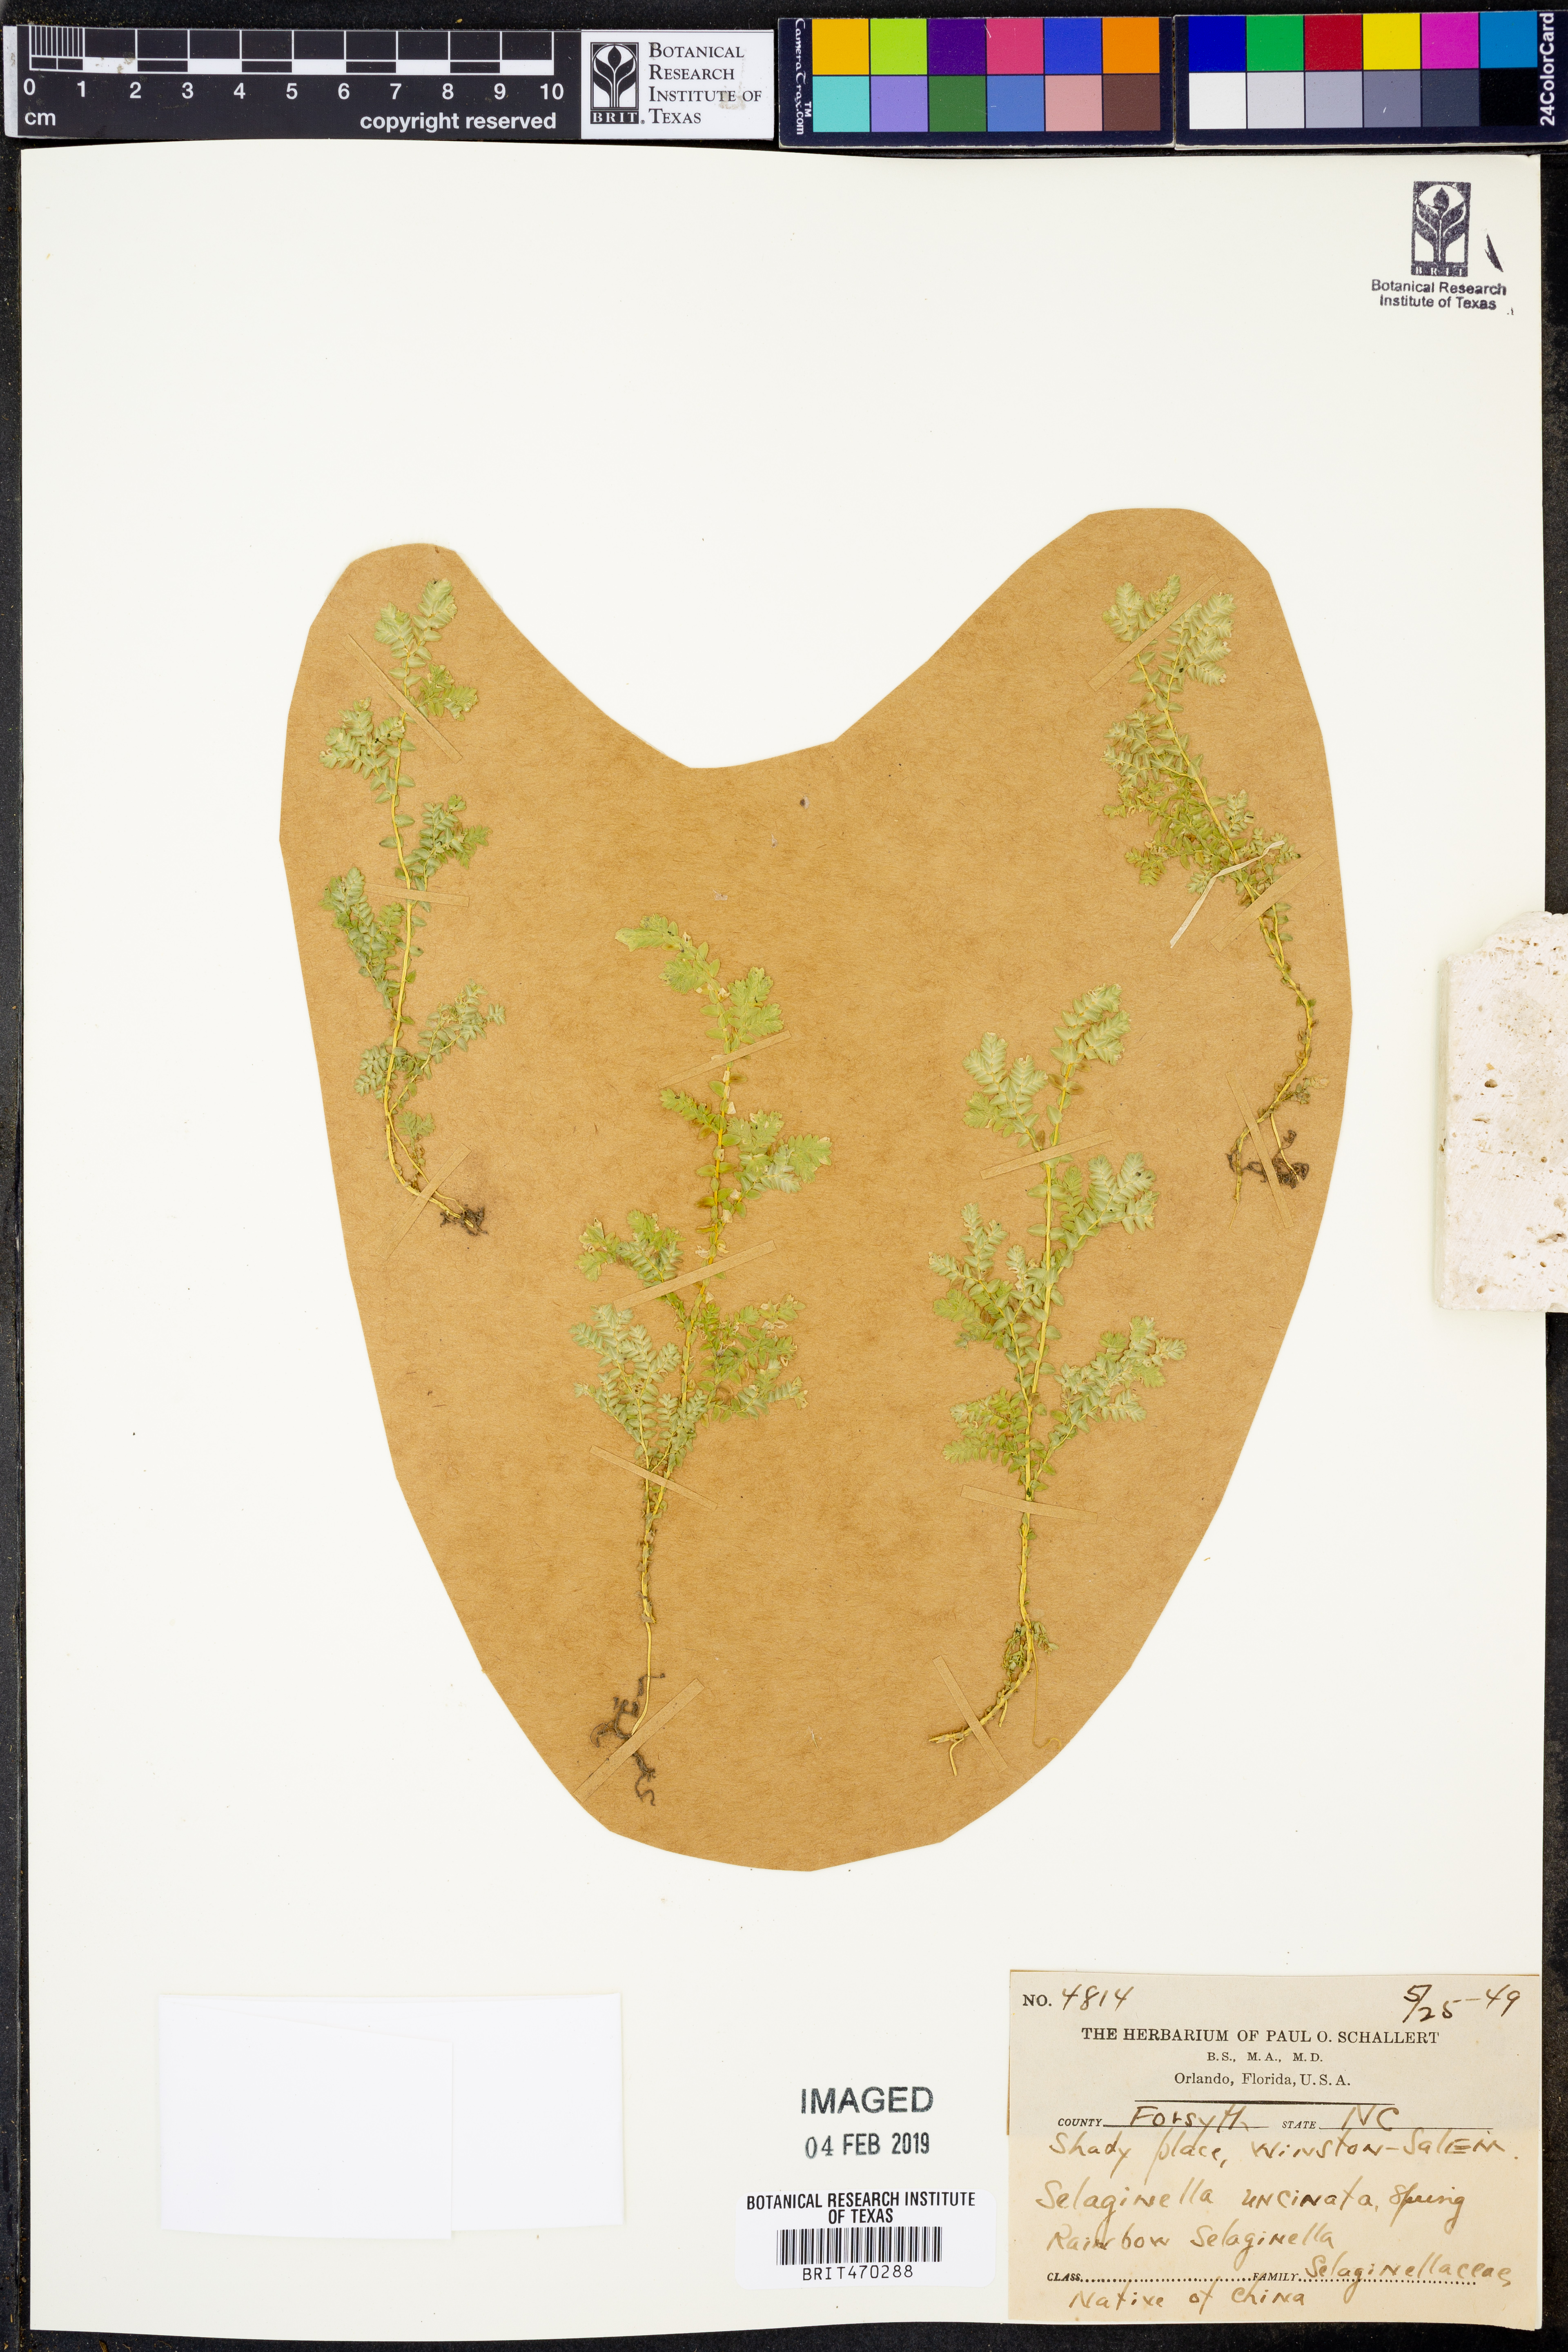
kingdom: Plantae
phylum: Tracheophyta
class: Lycopodiopsida
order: Selaginellales
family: Selaginellaceae
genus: Selaginella
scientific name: Selaginella uncinata
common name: Blue spikemoss
